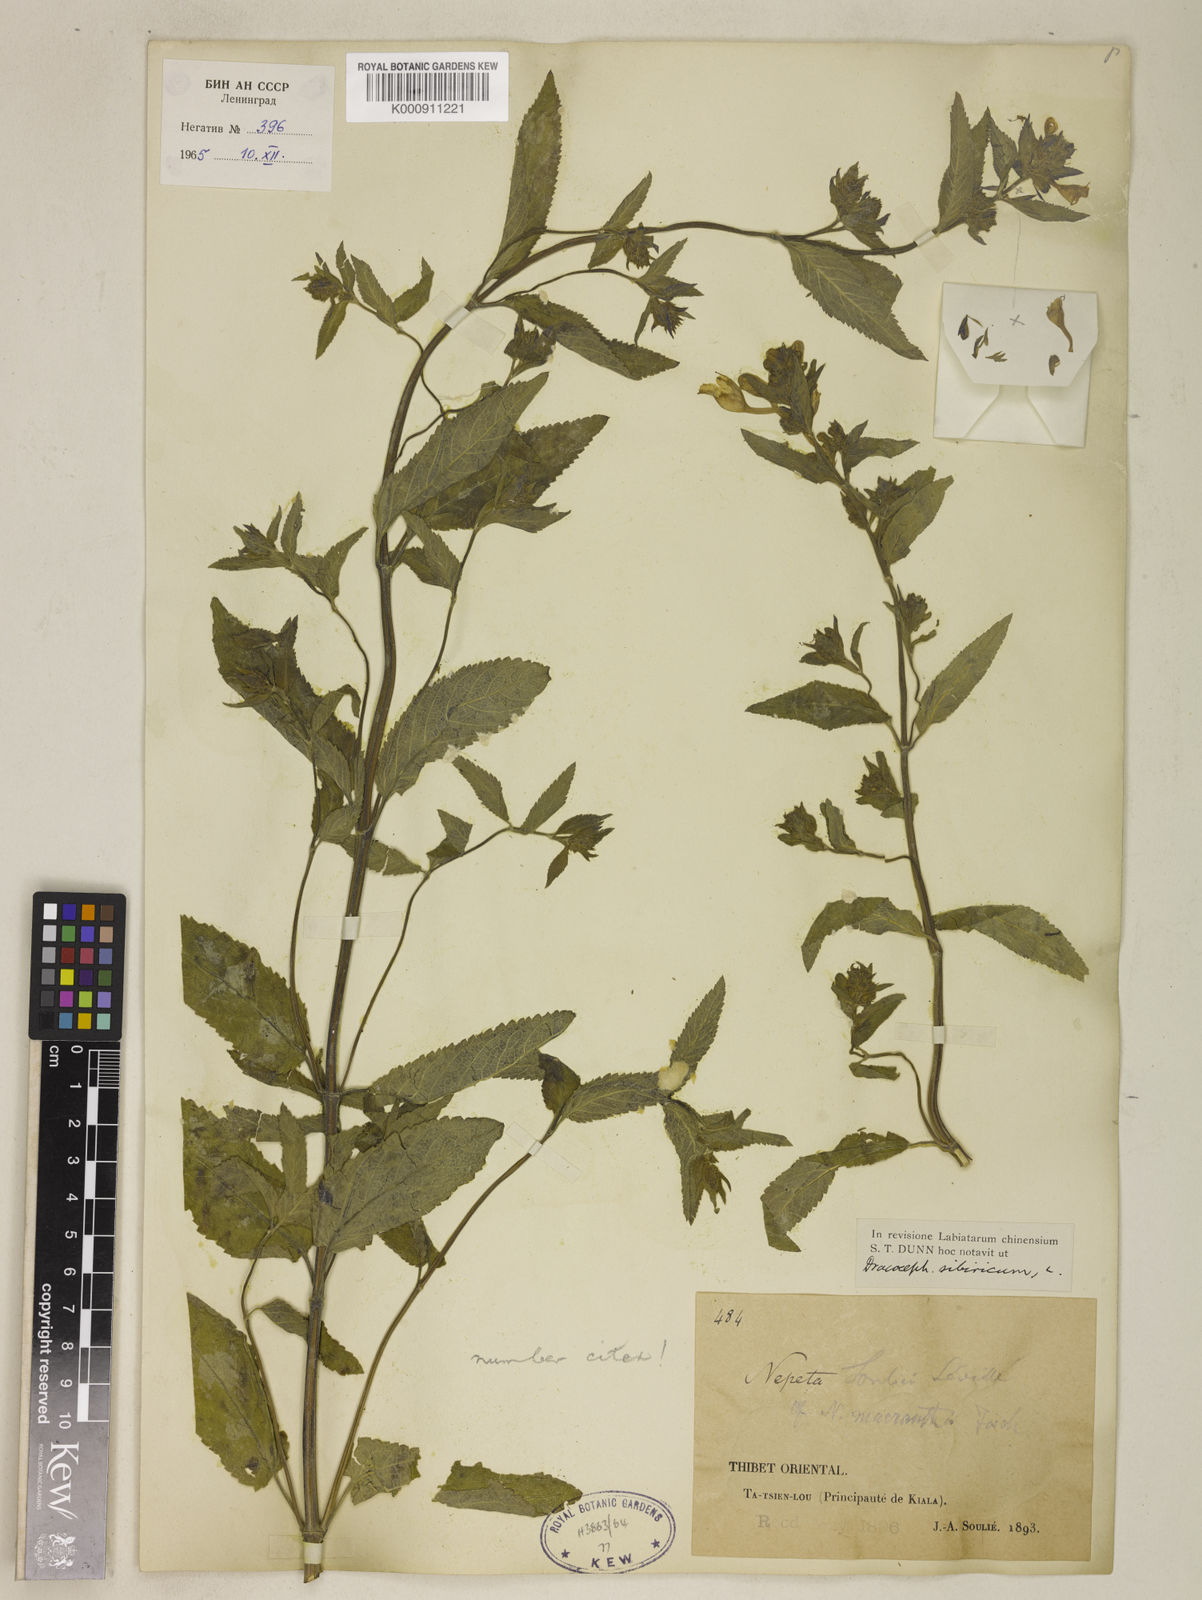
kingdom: Plantae
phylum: Tracheophyta
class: Magnoliopsida
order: Lamiales
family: Lamiaceae
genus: Nepeta
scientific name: Nepeta sibirica
